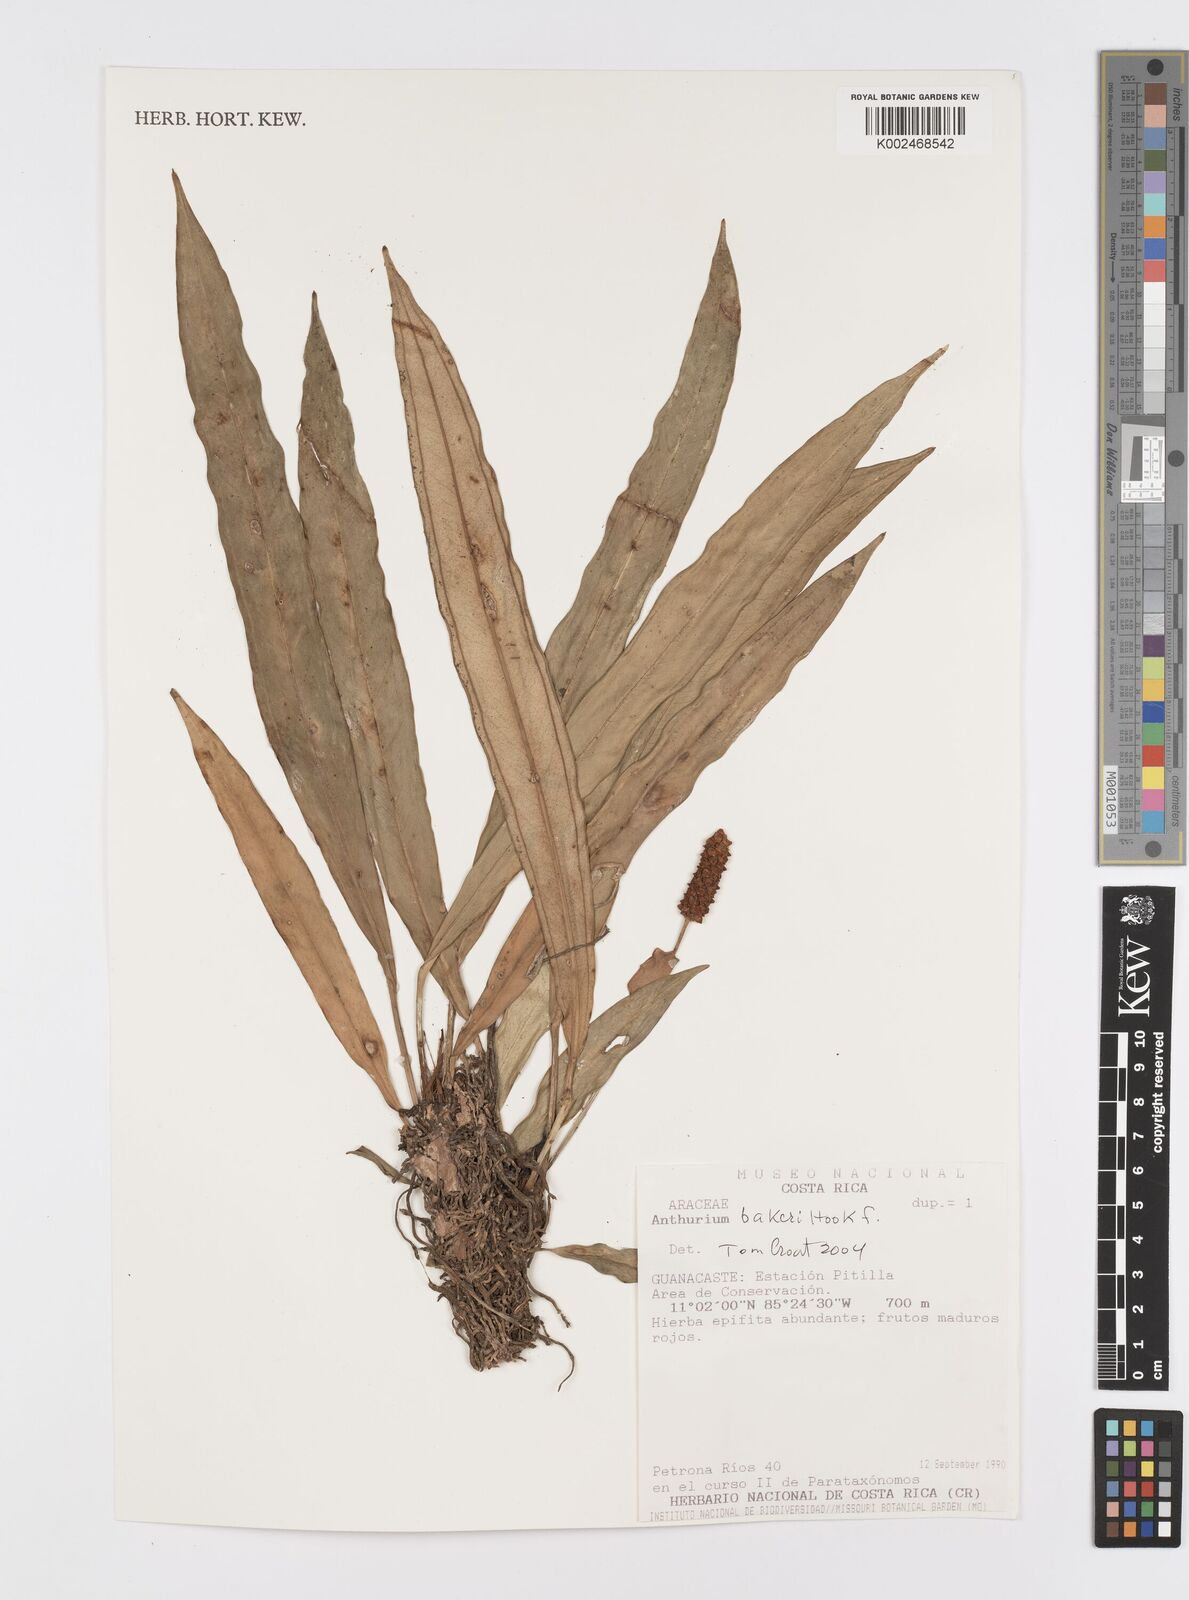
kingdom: Plantae
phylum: Tracheophyta
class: Liliopsida
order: Alismatales
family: Araceae
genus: Anthurium
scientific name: Anthurium bakeri
